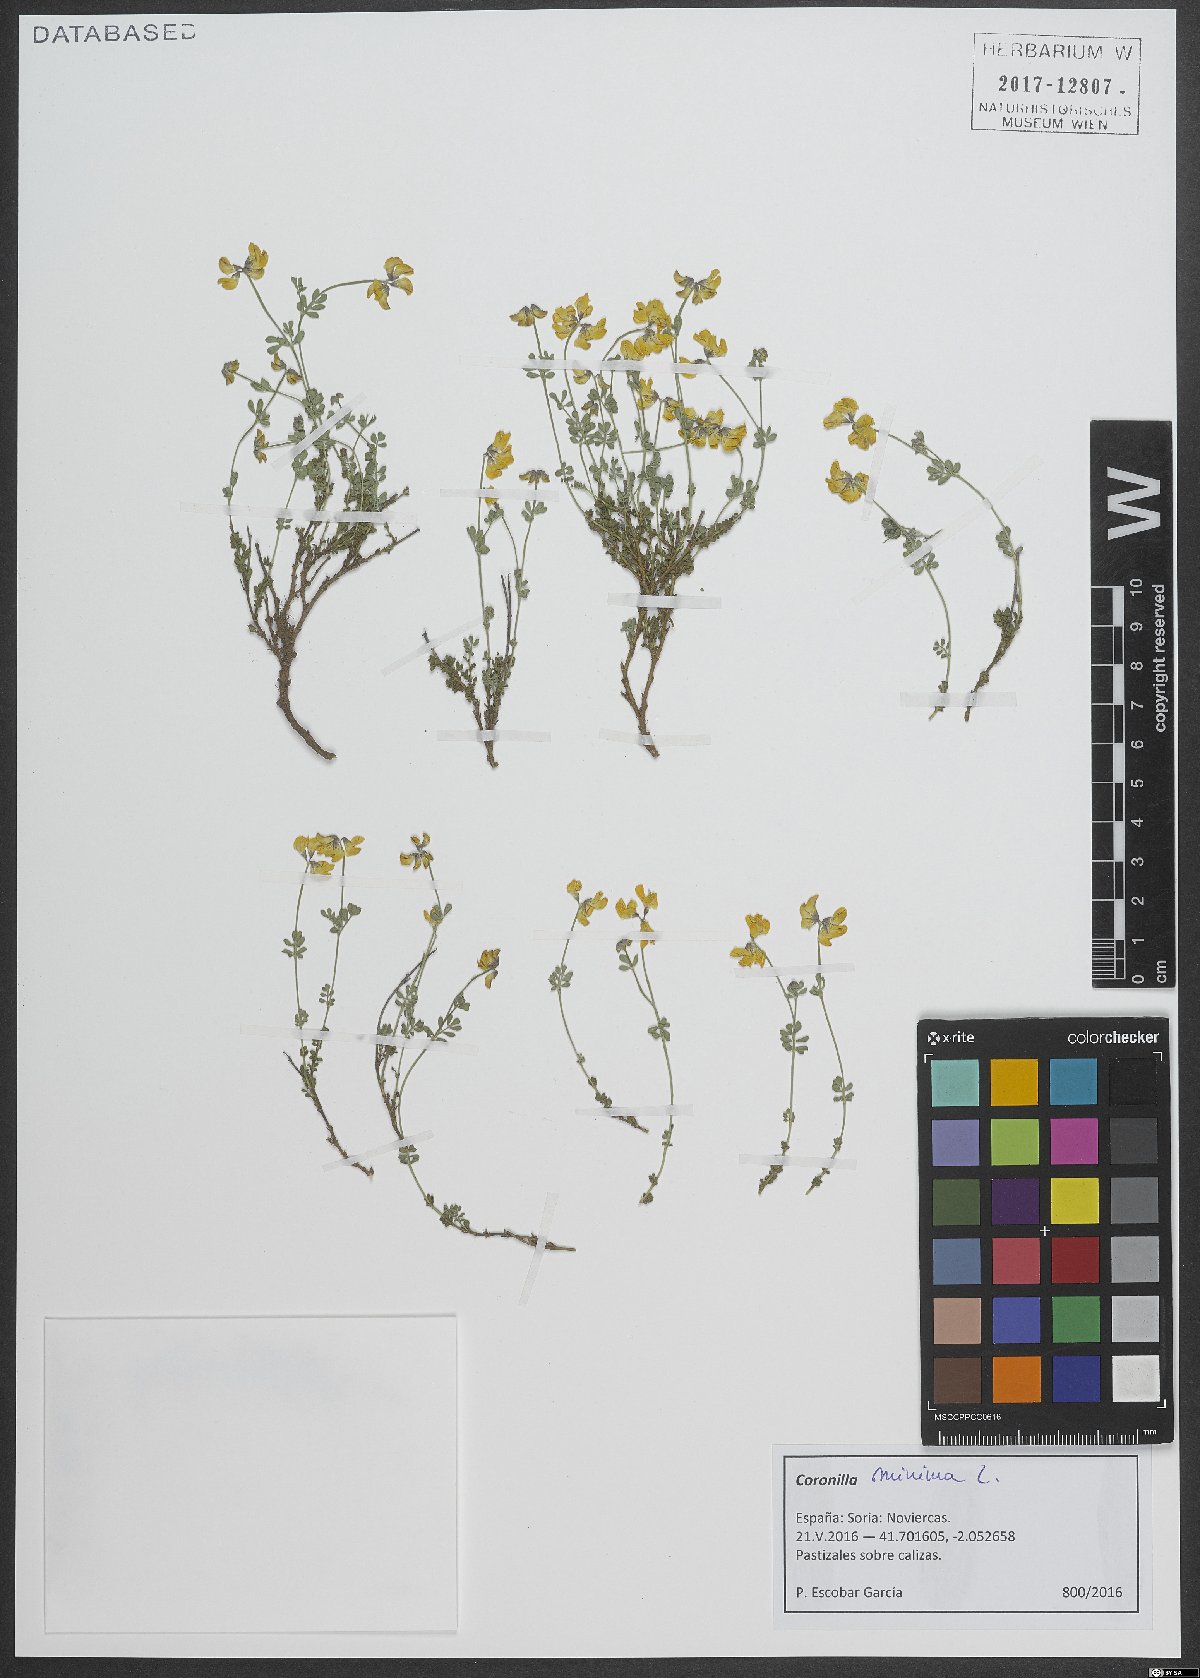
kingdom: Plantae
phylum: Tracheophyta
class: Magnoliopsida
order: Fabales
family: Fabaceae
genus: Coronilla
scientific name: Coronilla minima
